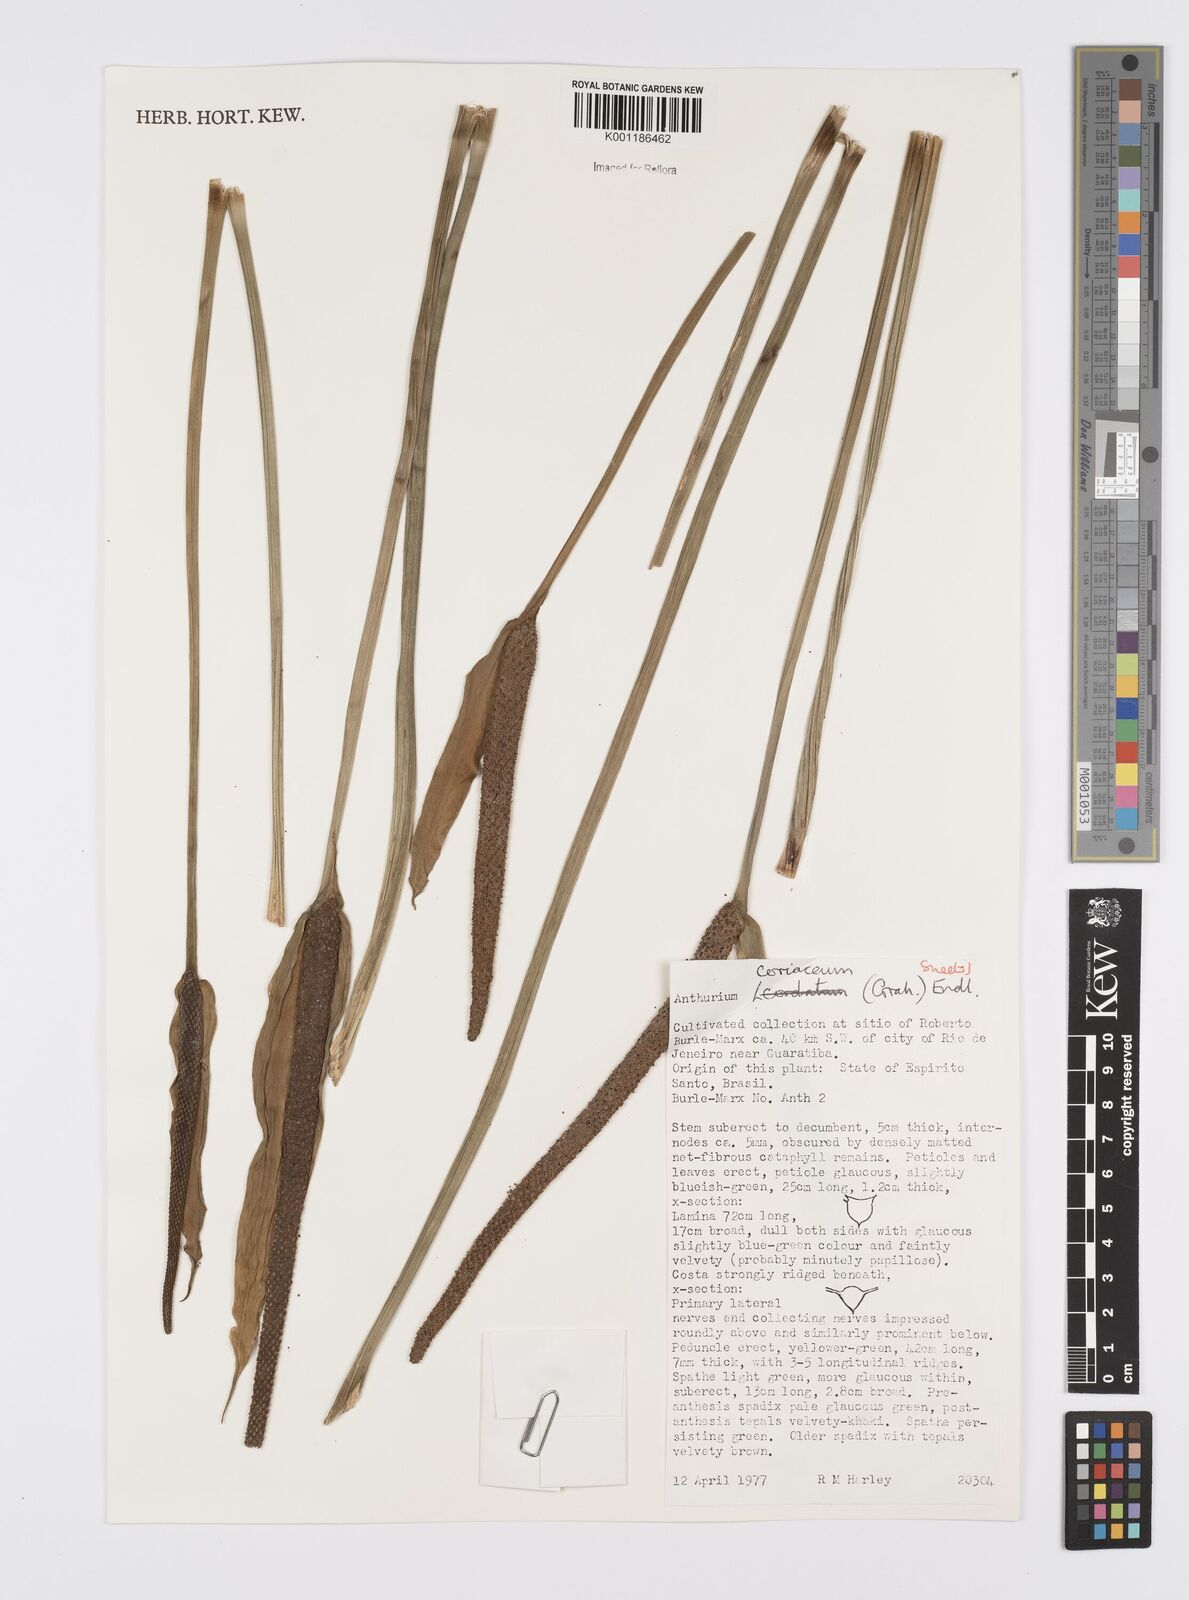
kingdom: Plantae
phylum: Tracheophyta
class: Liliopsida
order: Alismatales
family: Araceae
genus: Anthurium
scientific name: Anthurium coriaceum
